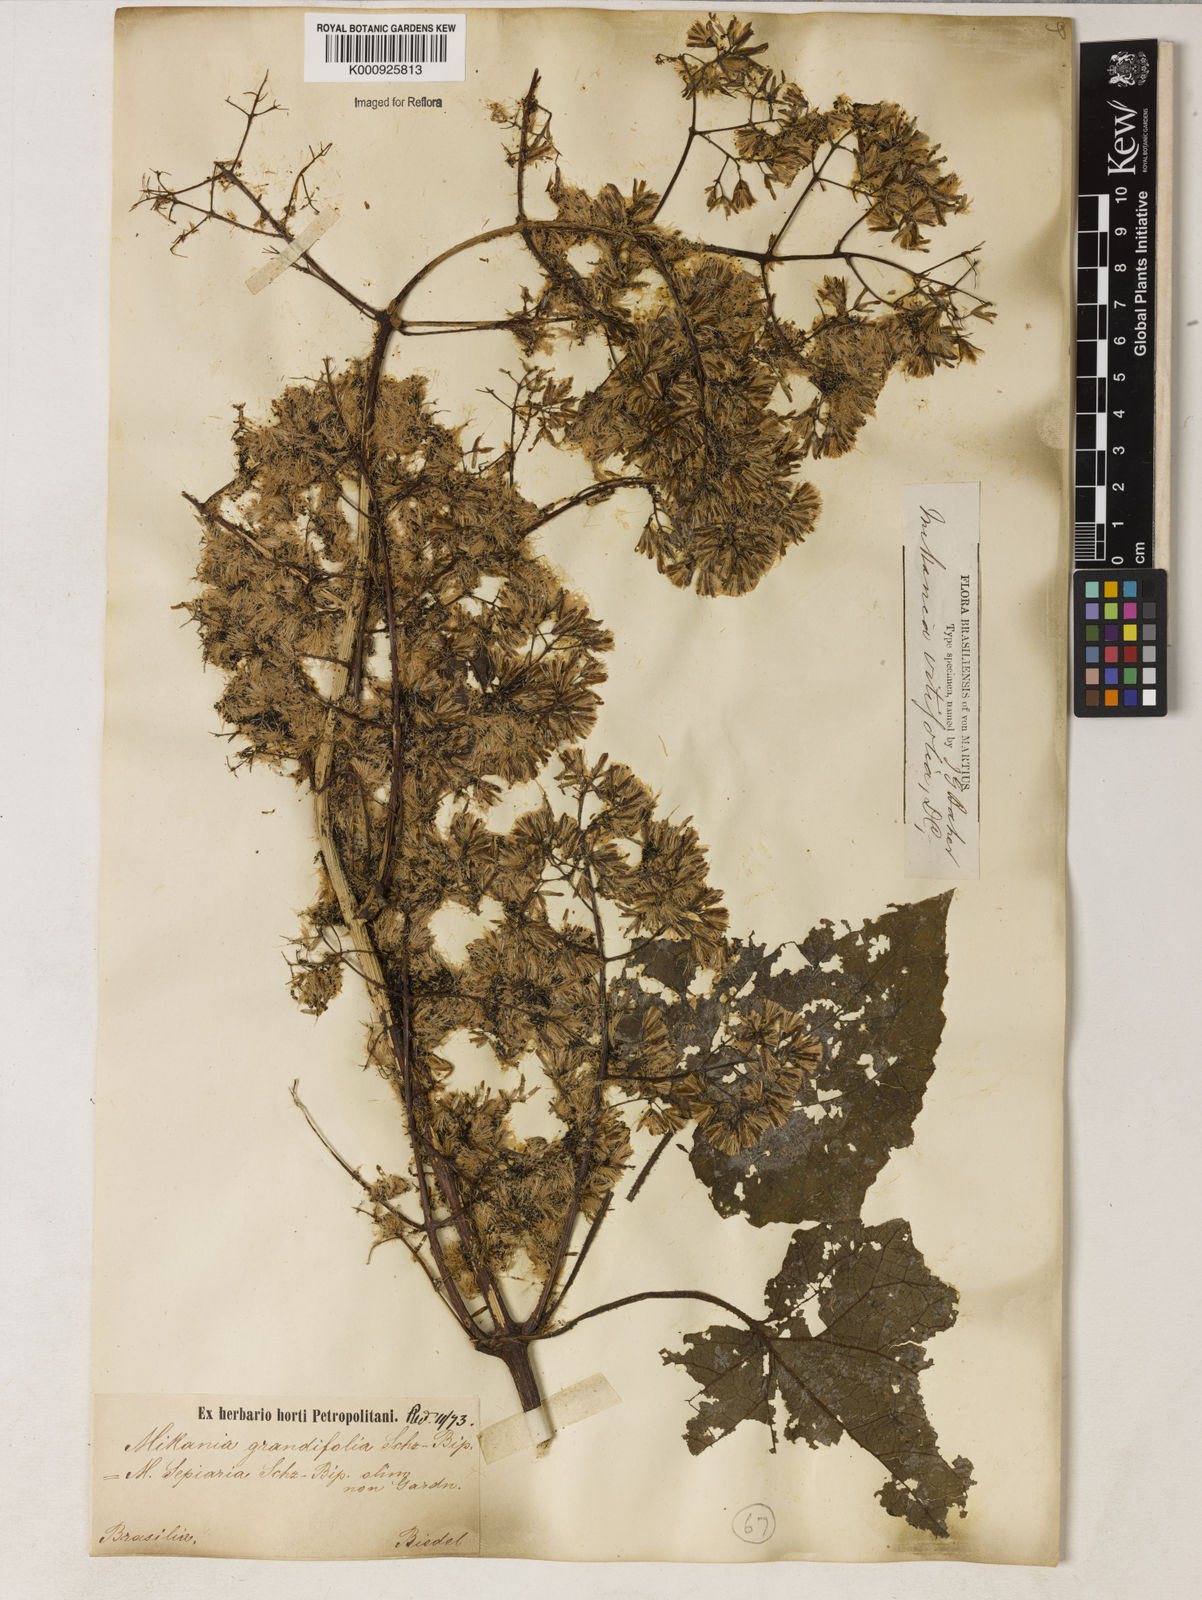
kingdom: Plantae
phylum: Tracheophyta
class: Magnoliopsida
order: Asterales
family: Asteraceae
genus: Mikania
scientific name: Mikania vitifolia
